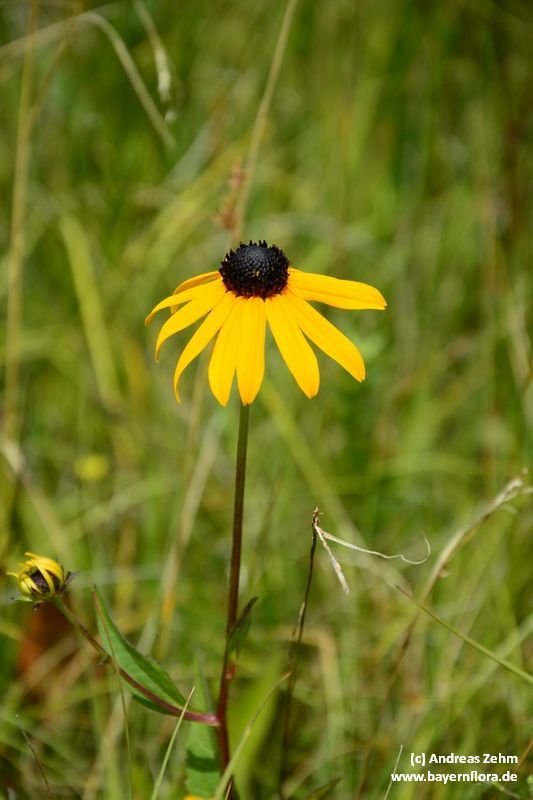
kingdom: Plantae
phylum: Tracheophyta
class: Magnoliopsida
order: Asterales
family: Asteraceae
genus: Rudbeckia
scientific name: Rudbeckia hirta
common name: Black-eyed-susan
